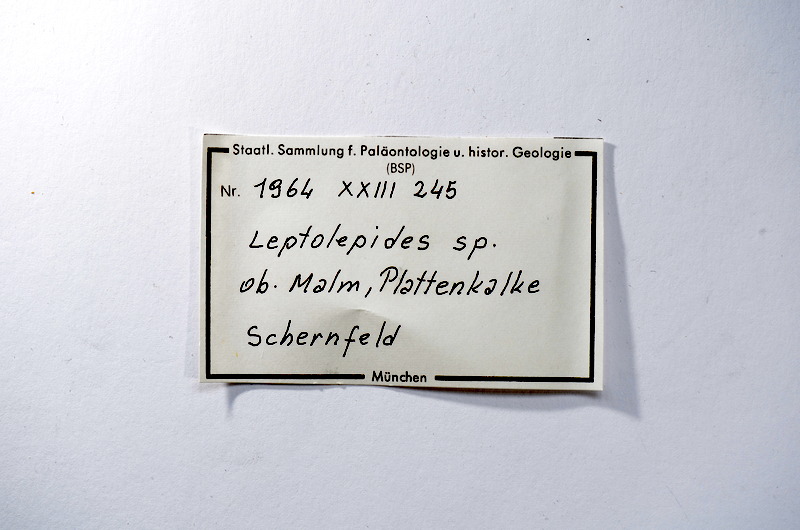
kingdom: Animalia
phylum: Chordata
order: Salmoniformes
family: Orthogonikleithridae
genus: Leptolepides
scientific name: Leptolepides
